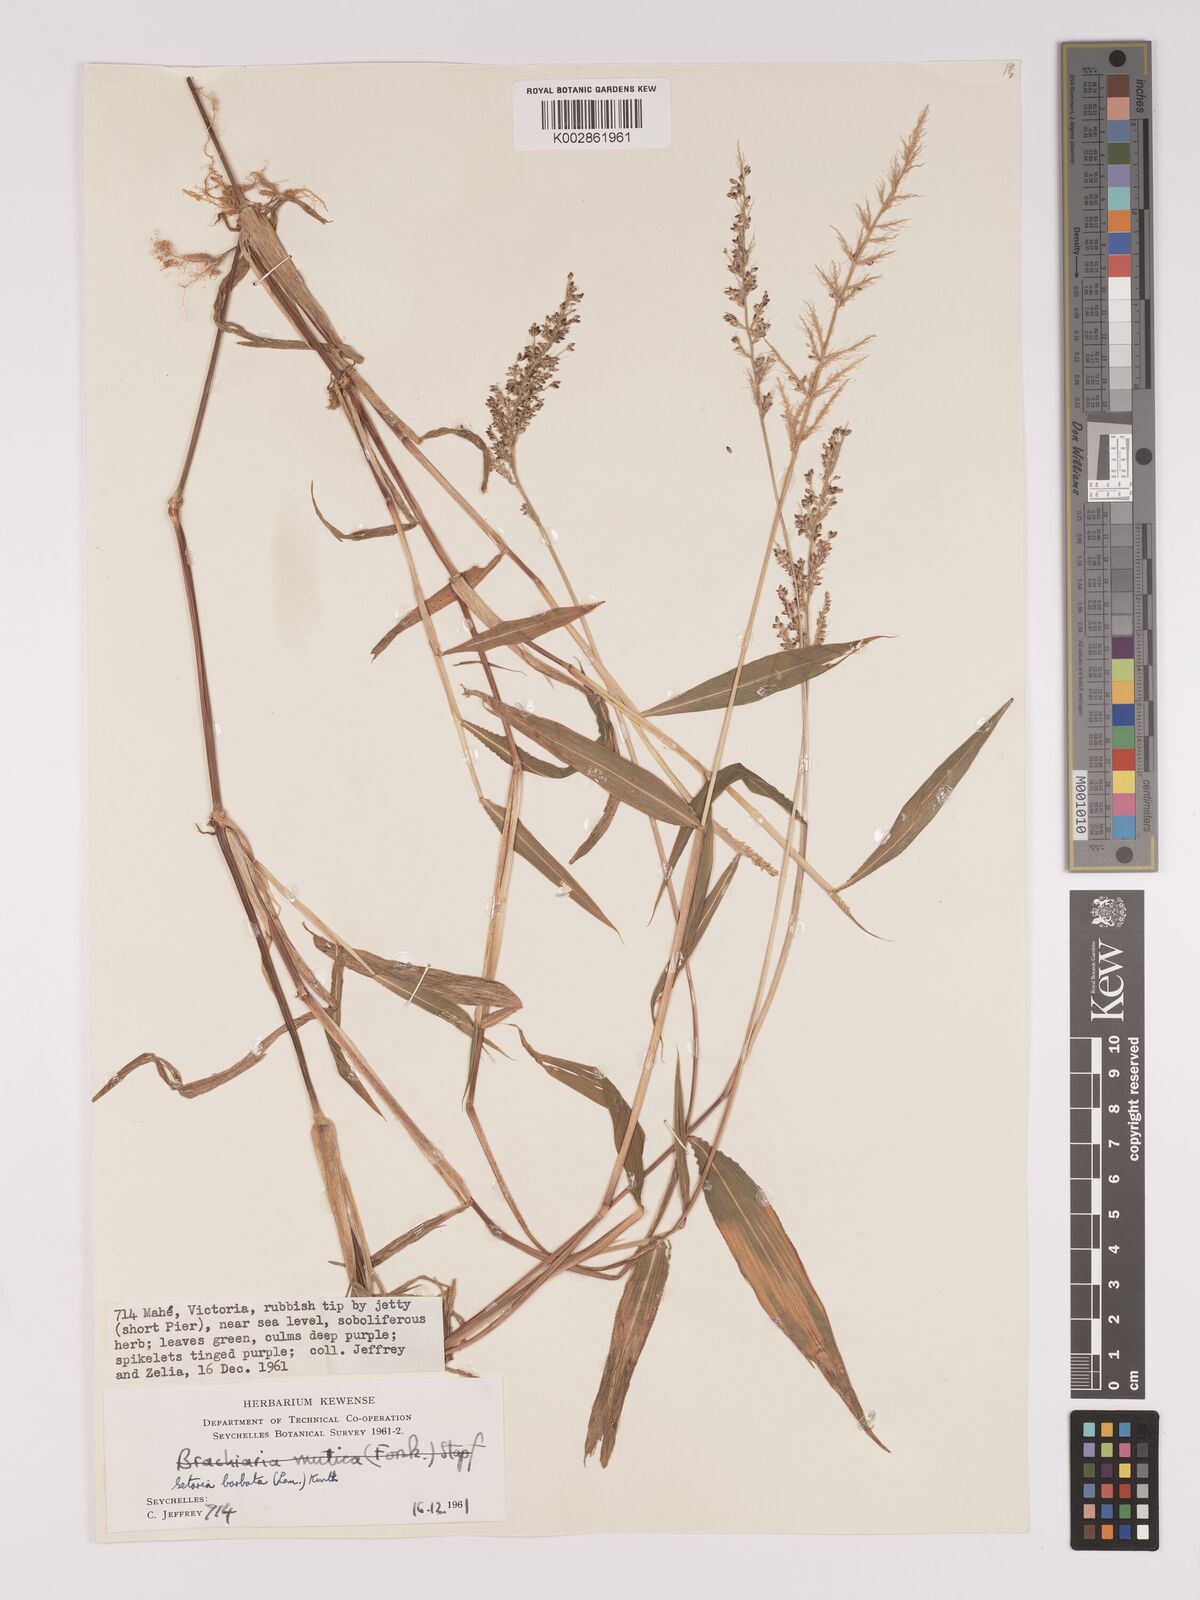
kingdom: Plantae
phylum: Tracheophyta
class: Liliopsida
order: Poales
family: Poaceae
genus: Setaria
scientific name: Setaria barbata
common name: East indian bristlegrass
